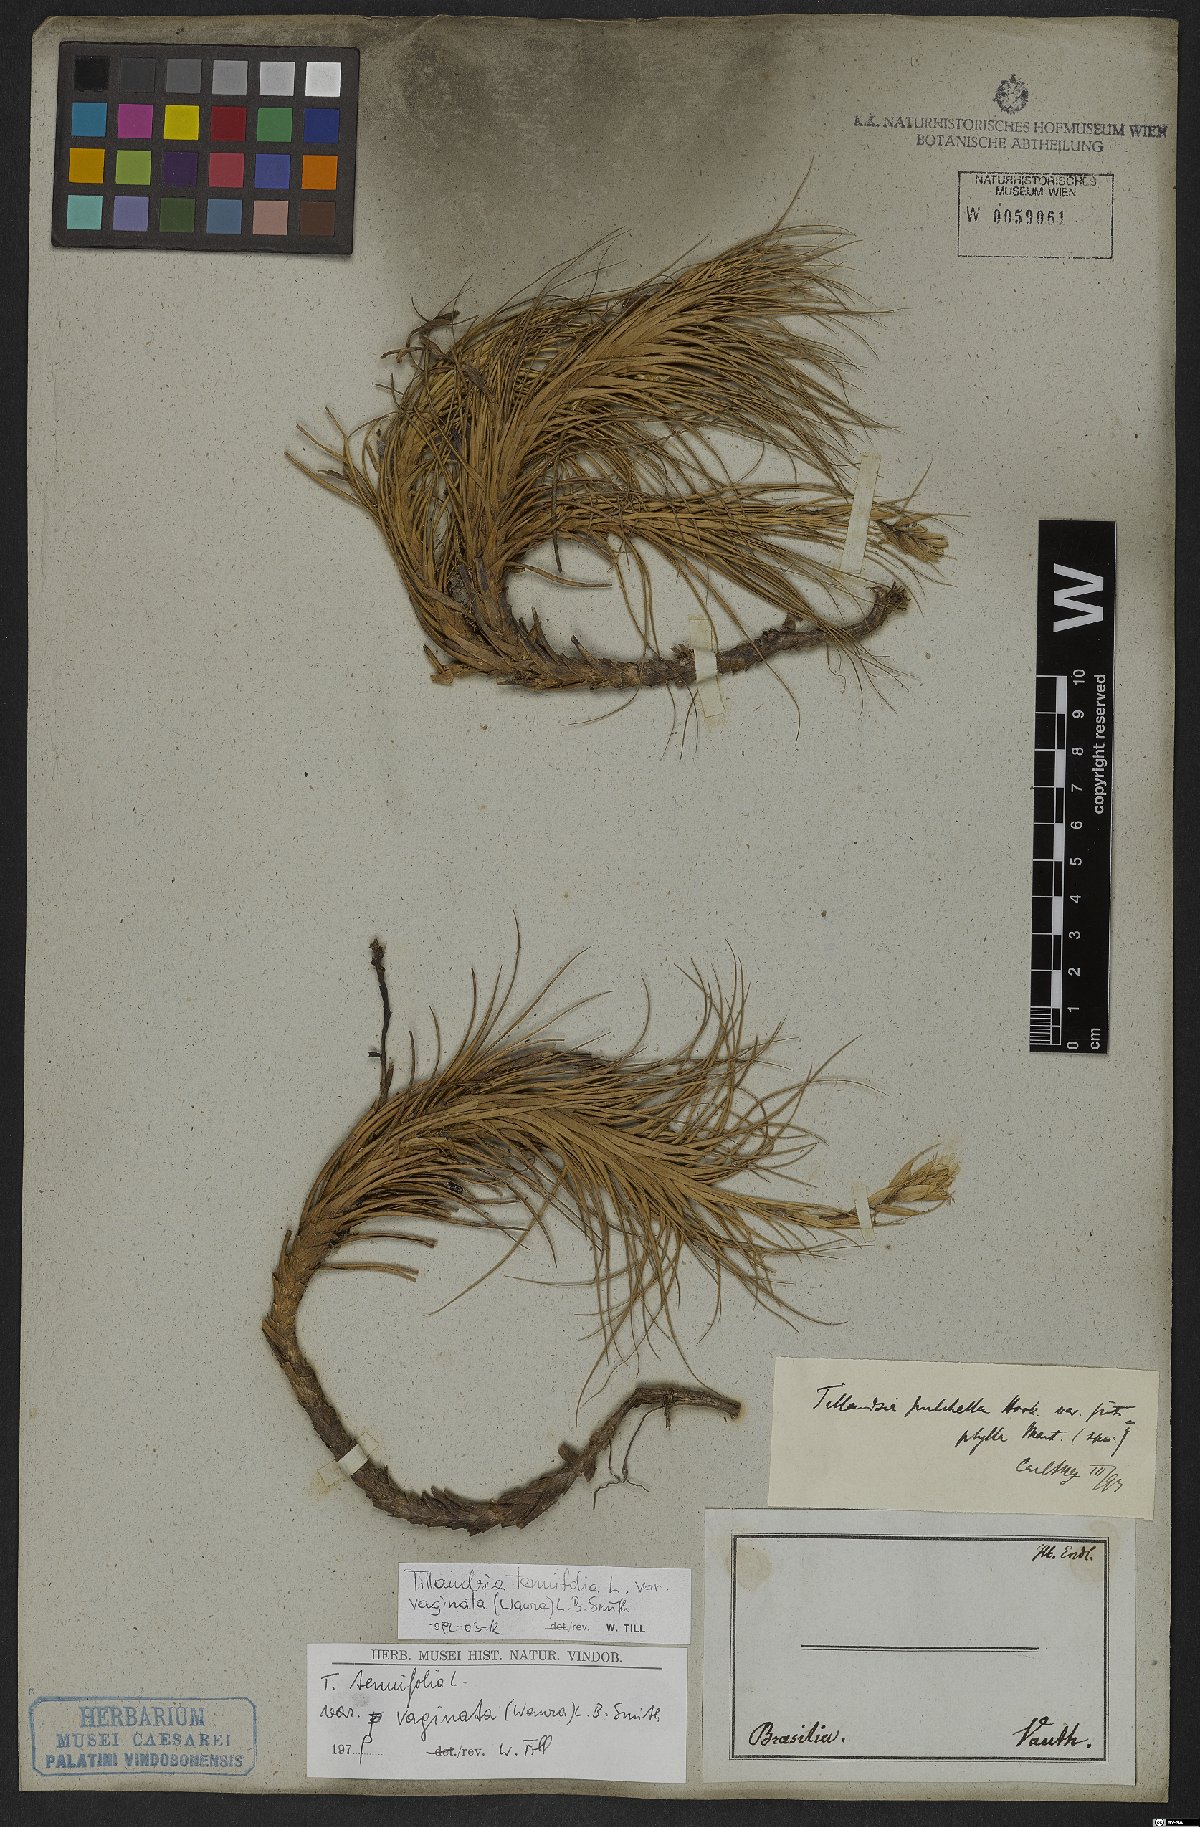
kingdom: Plantae
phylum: Tracheophyta
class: Liliopsida
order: Poales
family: Bromeliaceae
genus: Tillandsia
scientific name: Tillandsia tenuifolia
